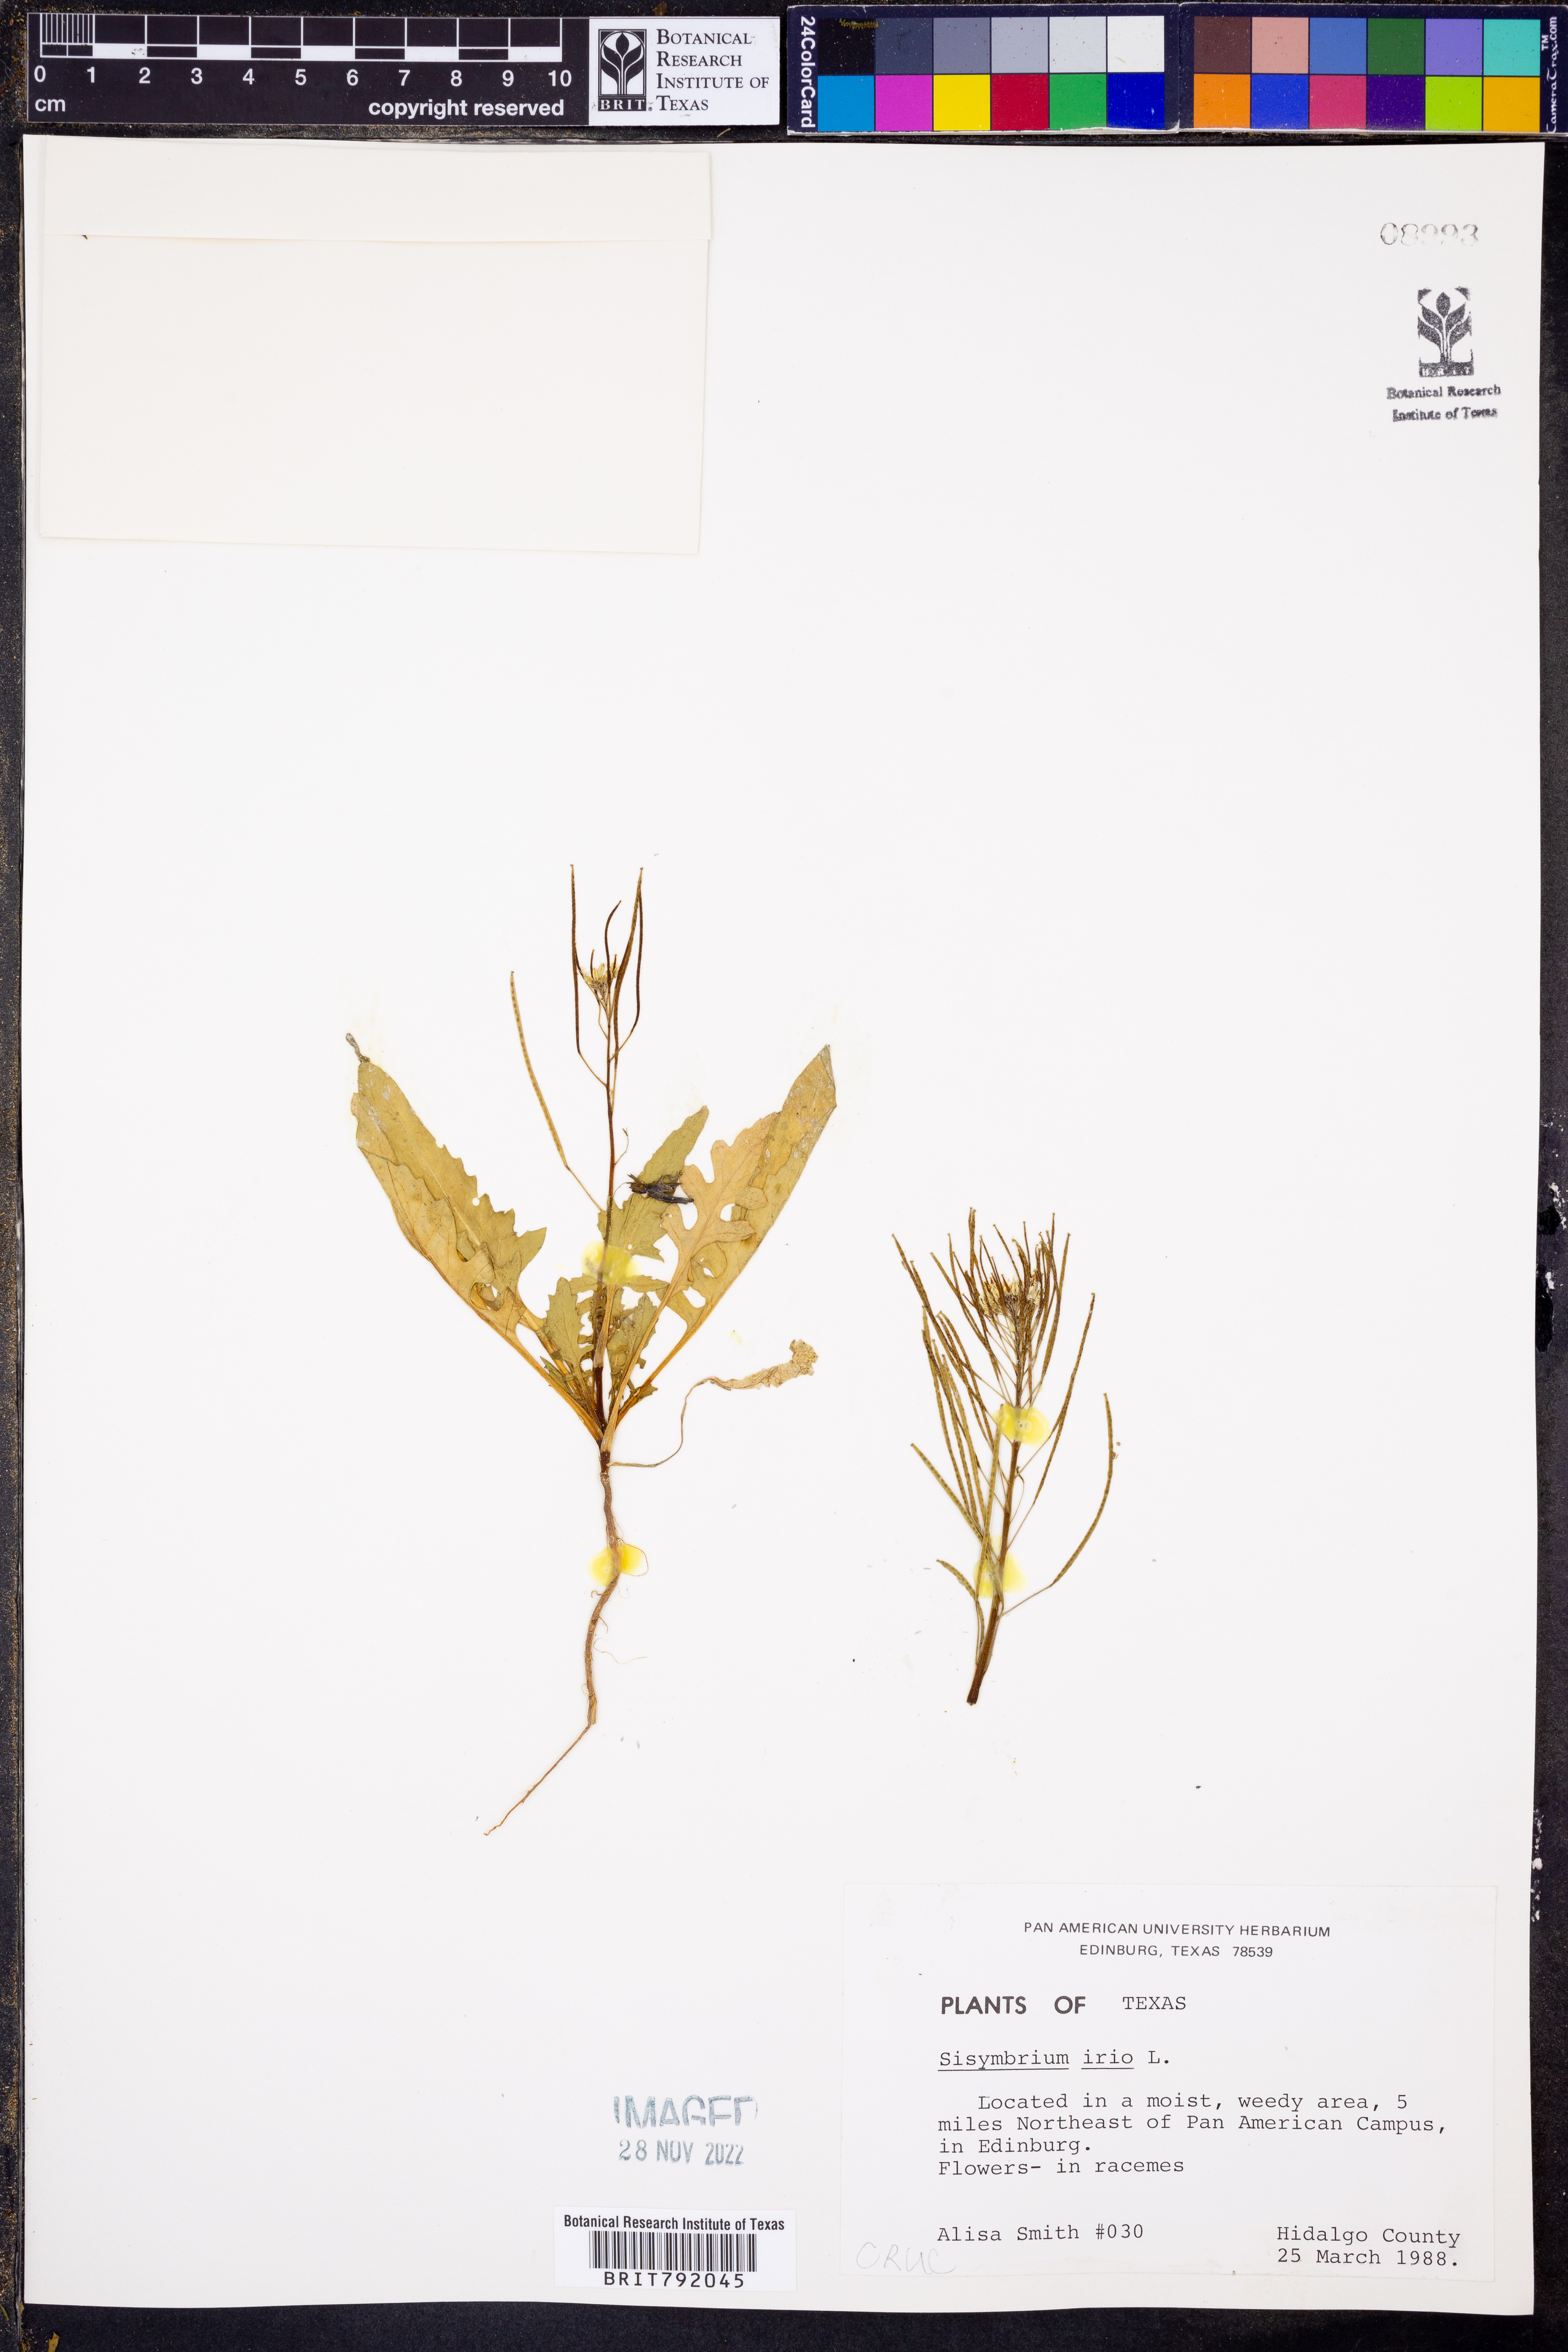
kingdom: Plantae
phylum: Tracheophyta
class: Magnoliopsida
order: Brassicales
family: Brassicaceae
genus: Sisymbrium
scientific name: Sisymbrium irio
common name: London rocket
